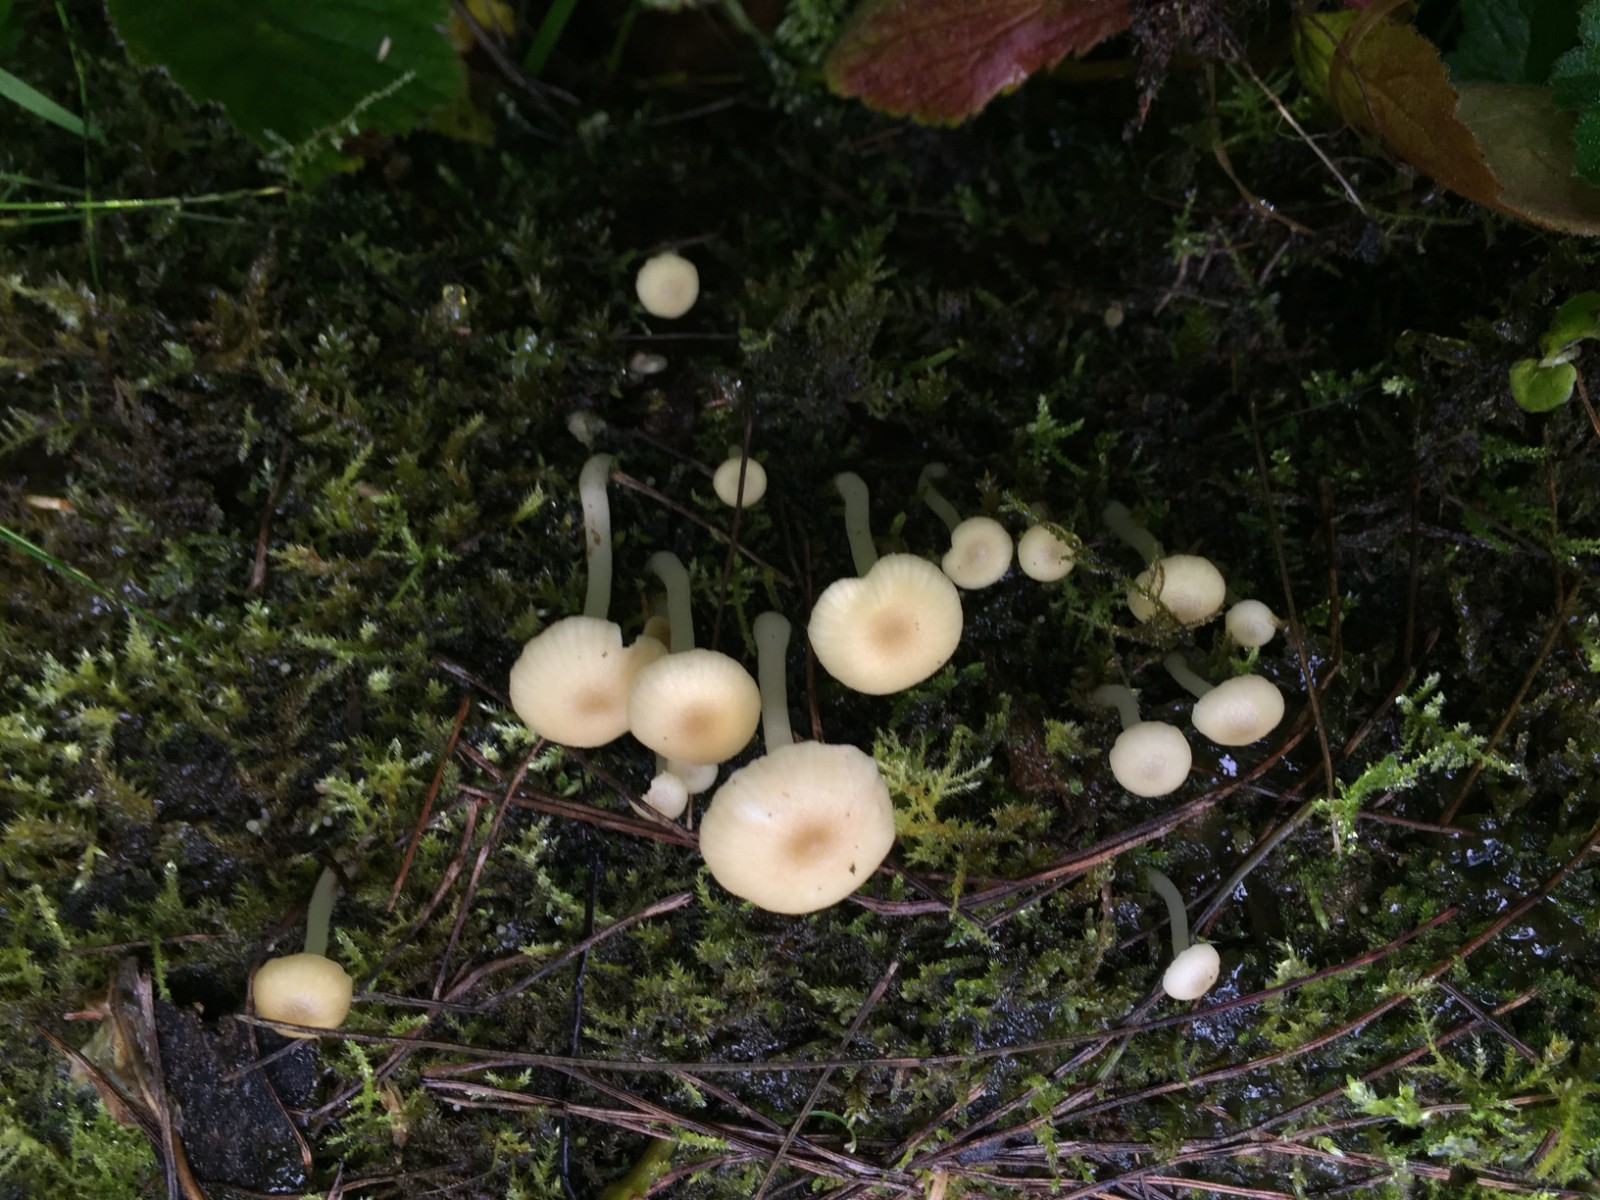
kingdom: Fungi
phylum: Basidiomycota
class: Agaricomycetes
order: Agaricales
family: Hygrophoraceae
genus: Chrysomphalina
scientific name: Chrysomphalina grossula
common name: stød-gyldenblad
